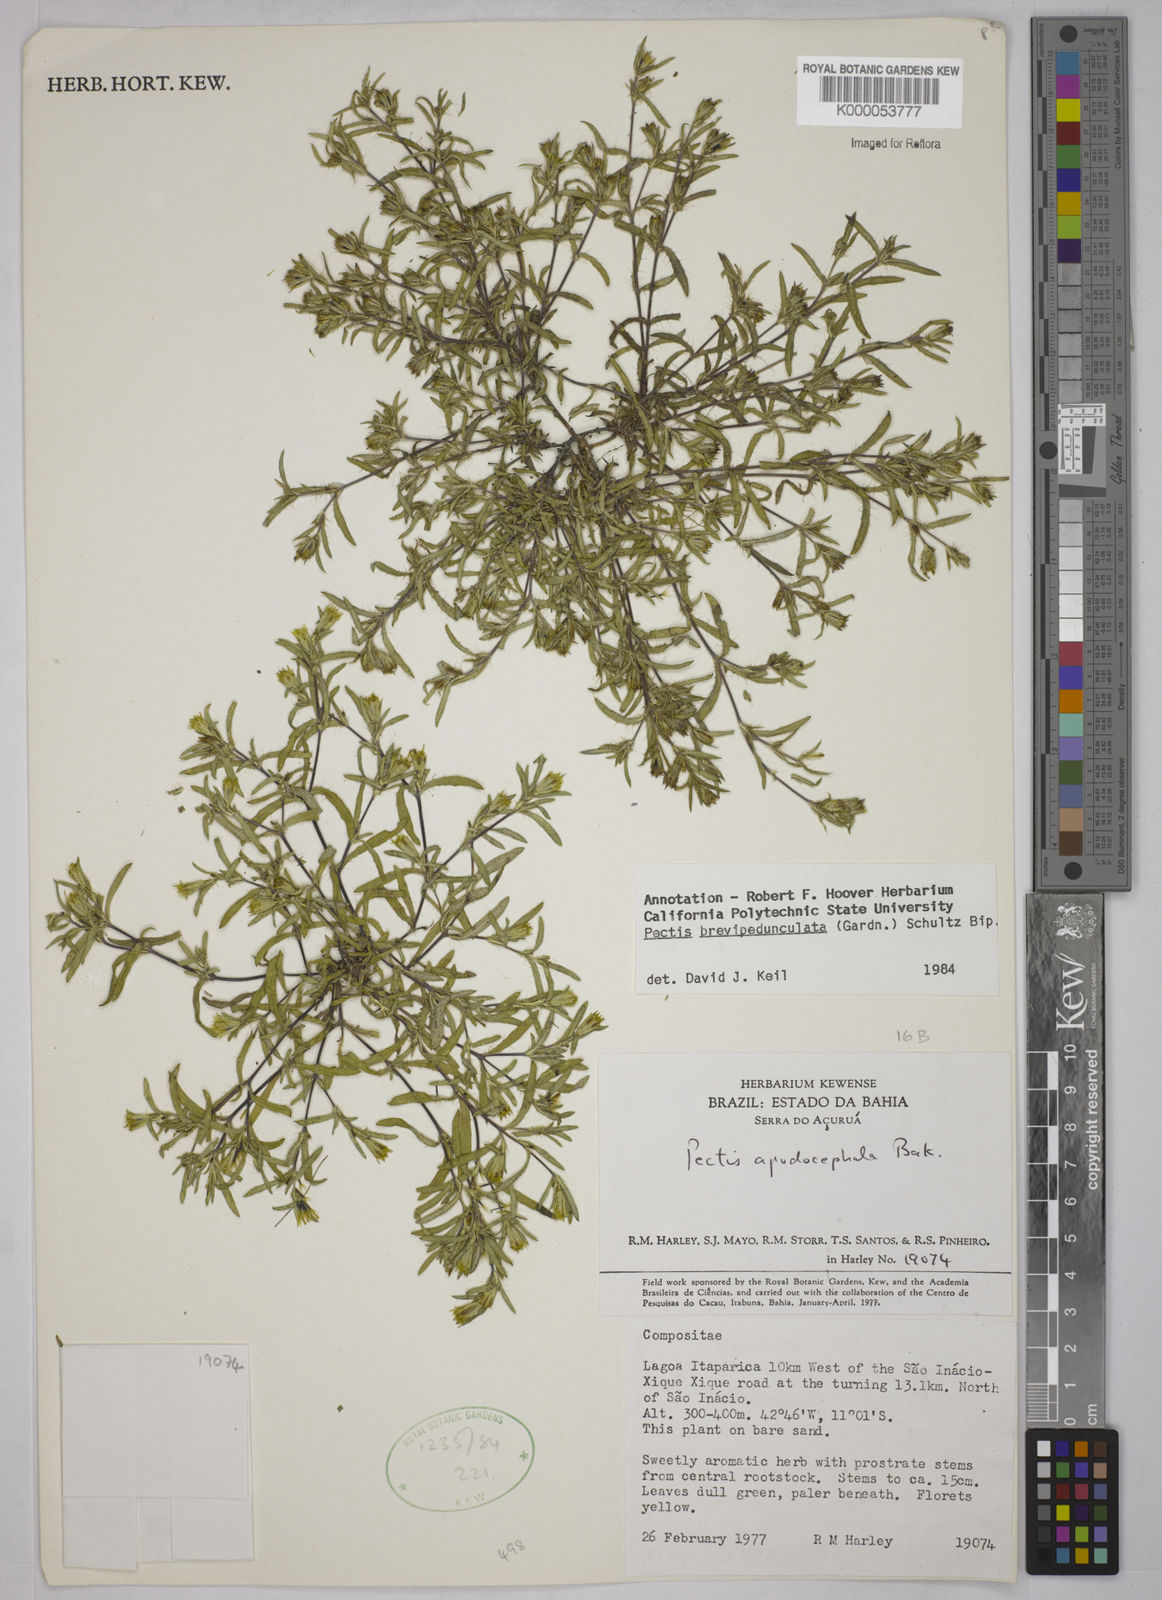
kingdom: Plantae
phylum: Tracheophyta
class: Magnoliopsida
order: Asterales
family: Asteraceae
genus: Pectis
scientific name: Pectis brevipedunculata
